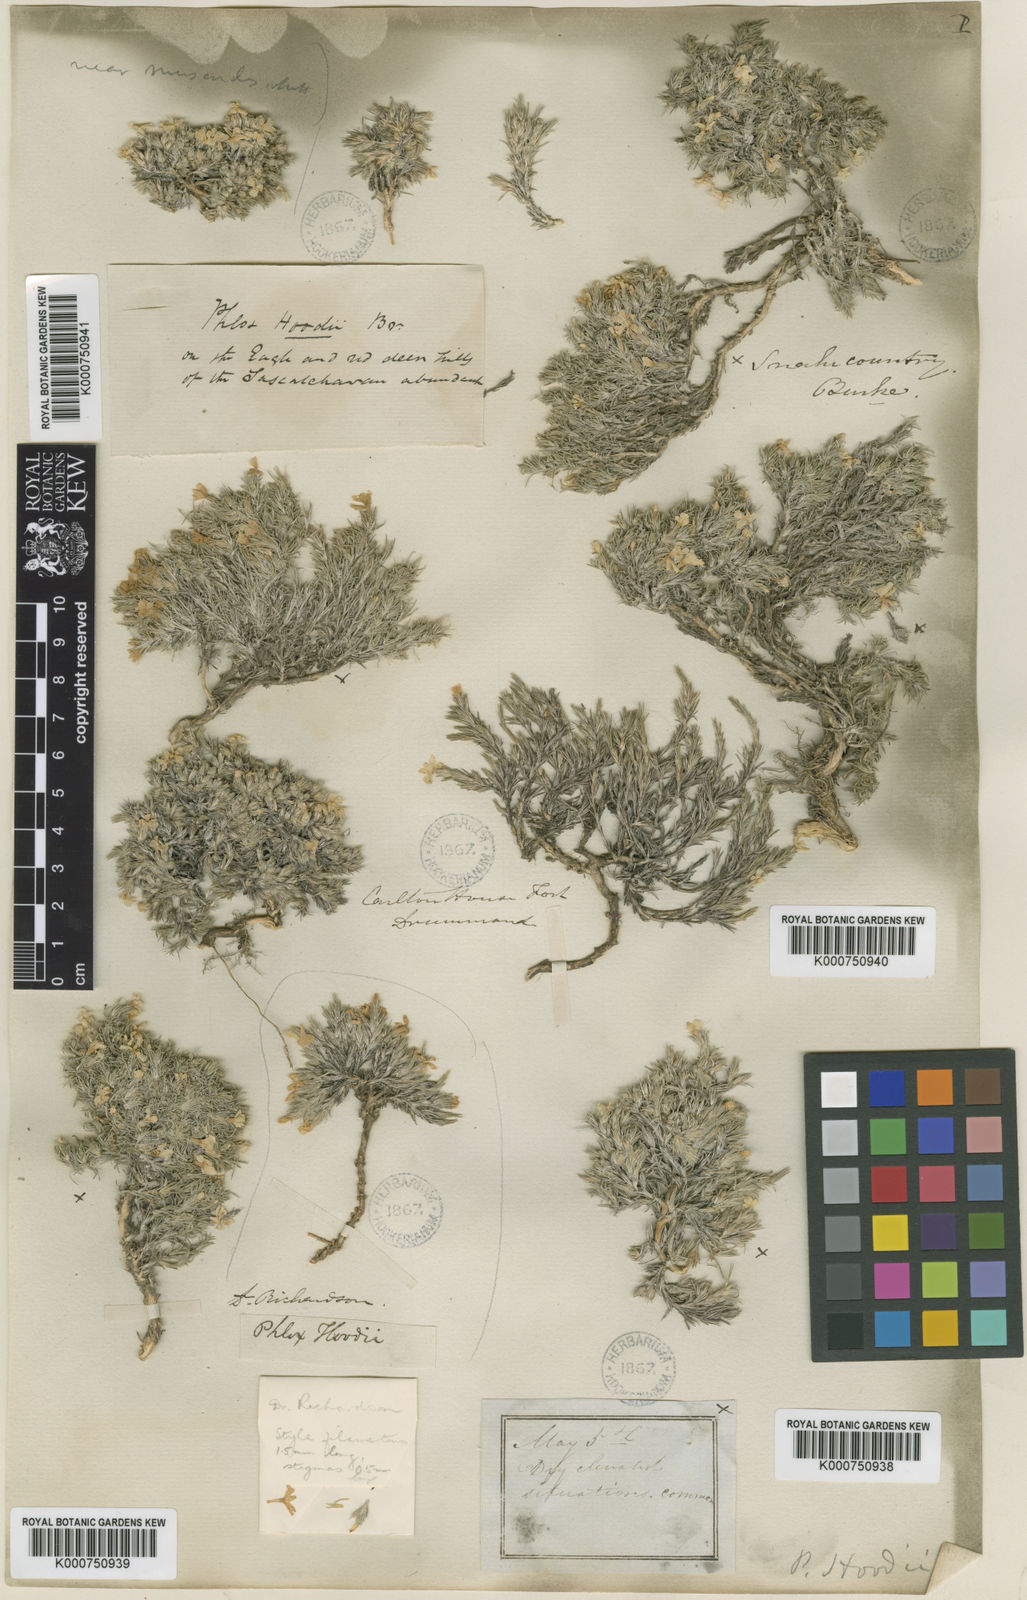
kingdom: Plantae
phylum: Tracheophyta
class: Magnoliopsida
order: Ericales
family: Polemoniaceae
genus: Phlox
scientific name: Phlox hoodii
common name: Moss phlox
